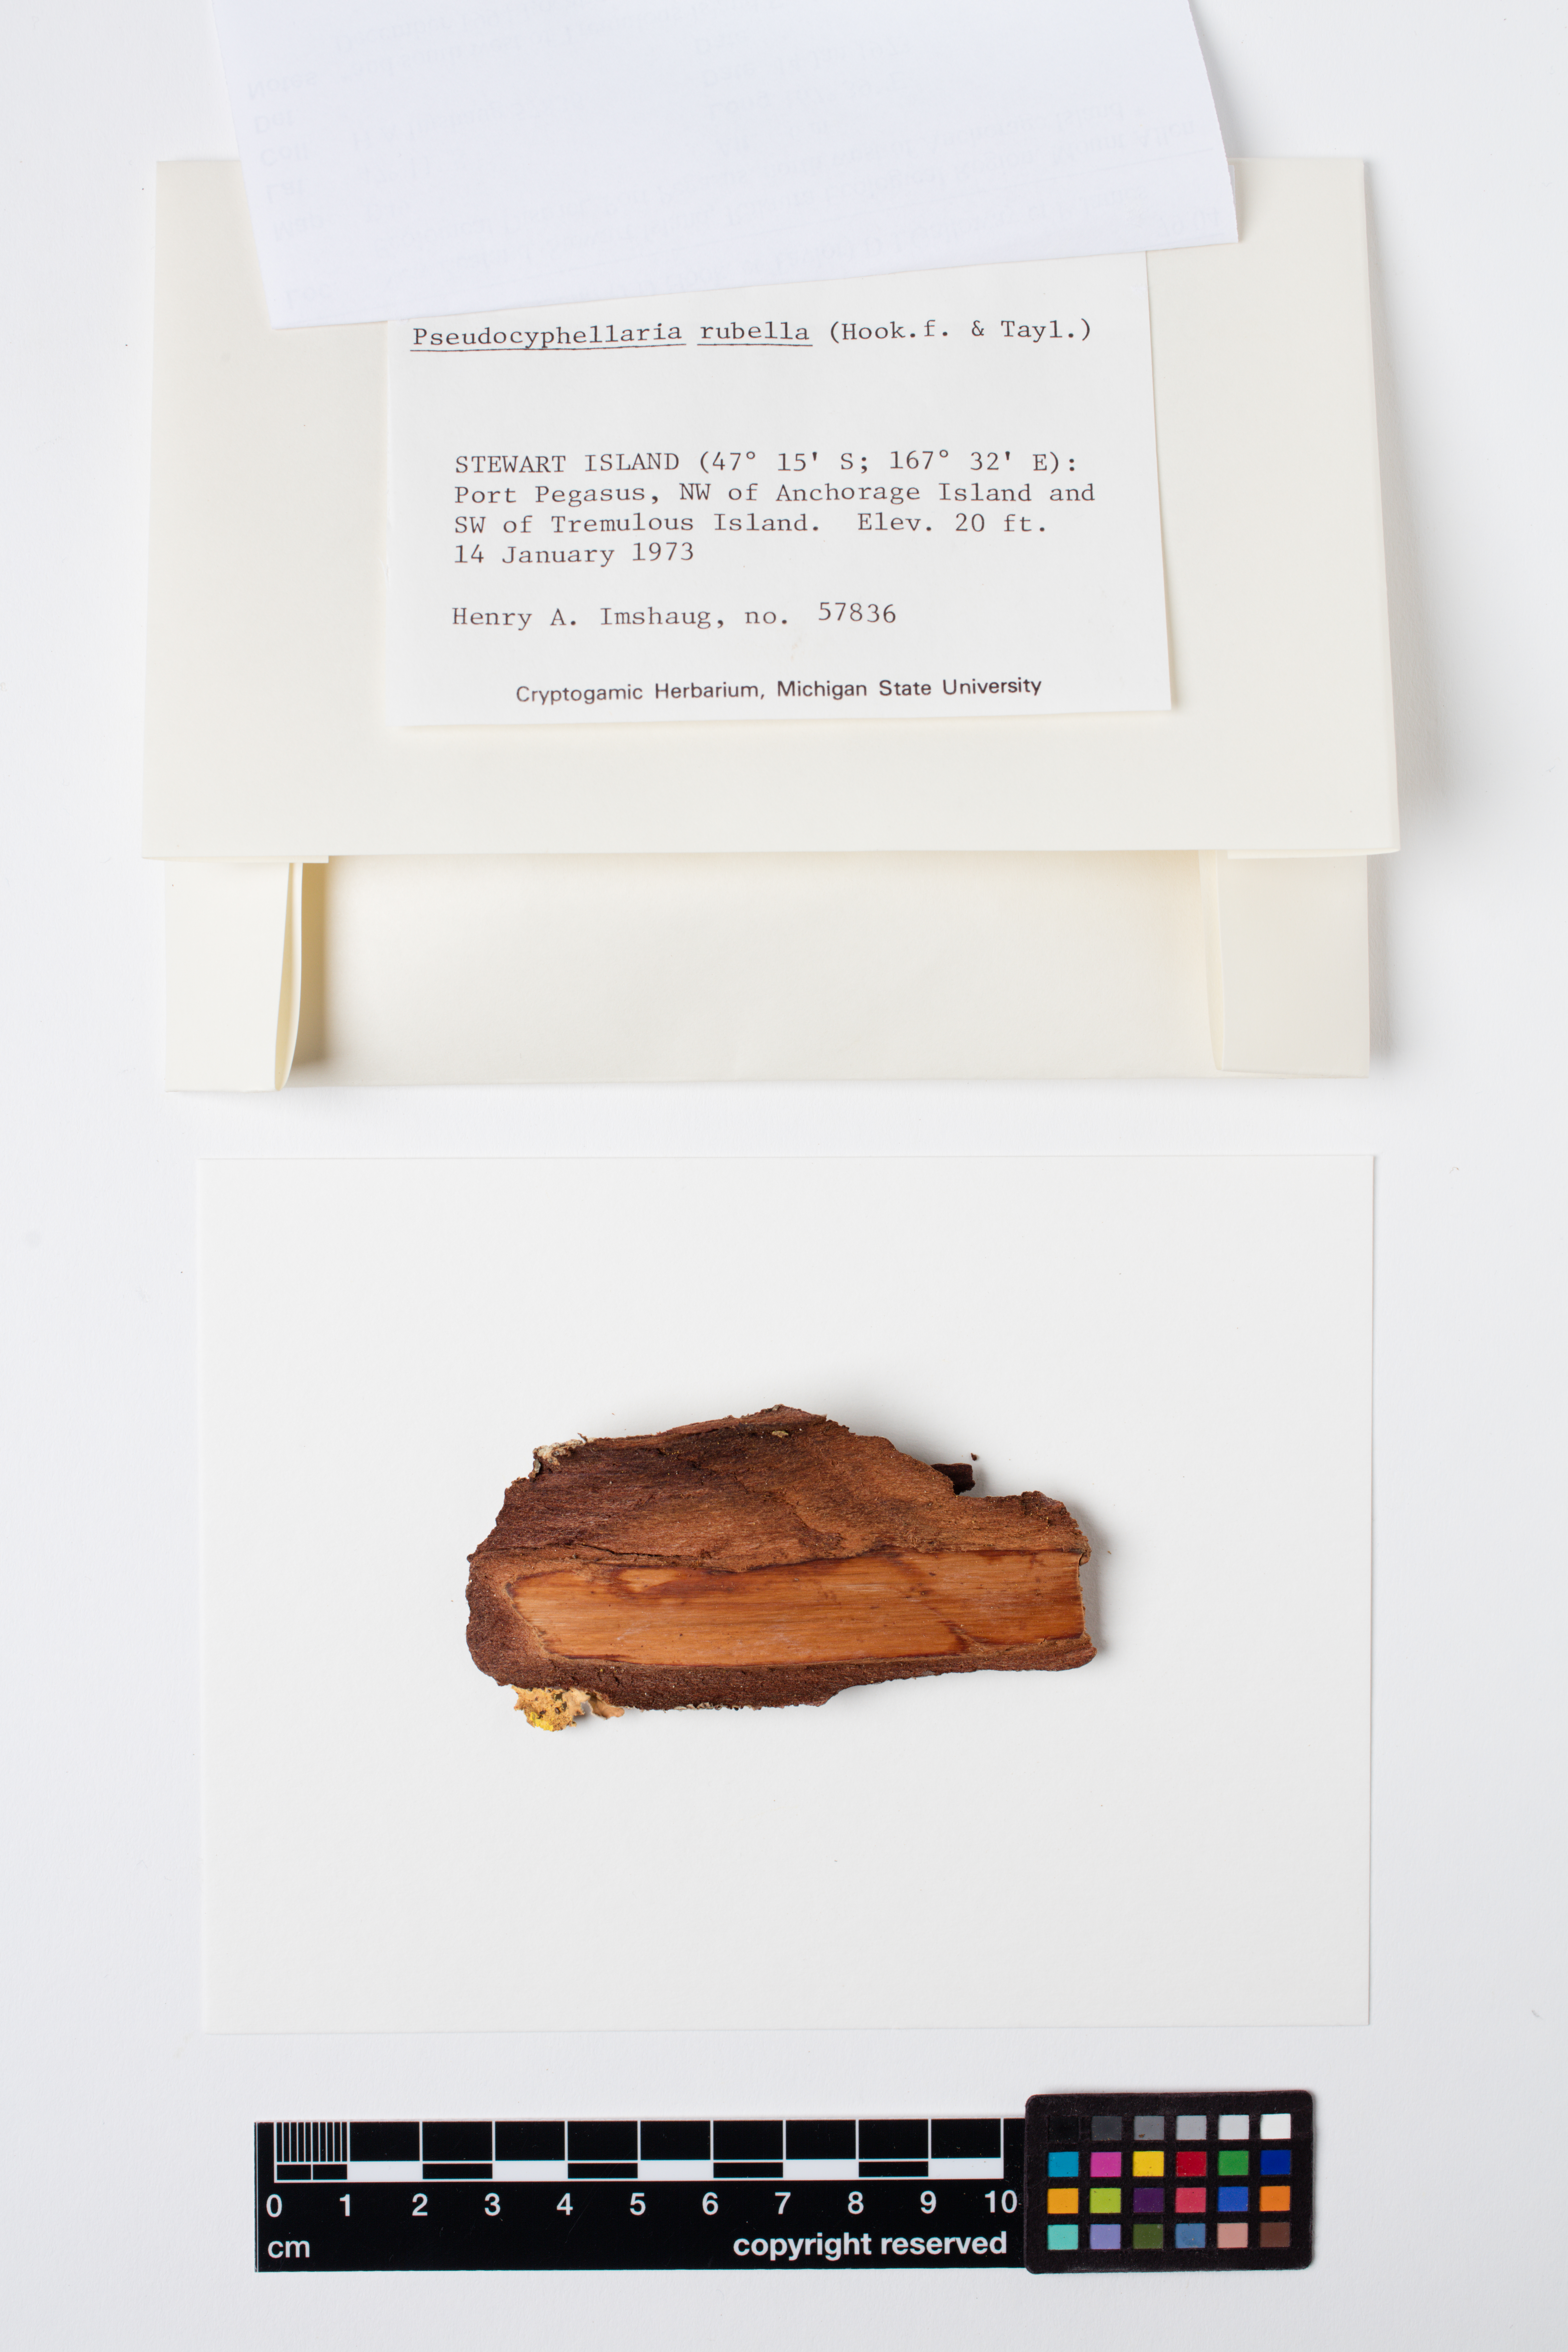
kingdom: Fungi
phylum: Ascomycota
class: Lecanoromycetes
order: Peltigerales
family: Lobariaceae
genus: Pseudocyphellaria
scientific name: Pseudocyphellaria rubella
